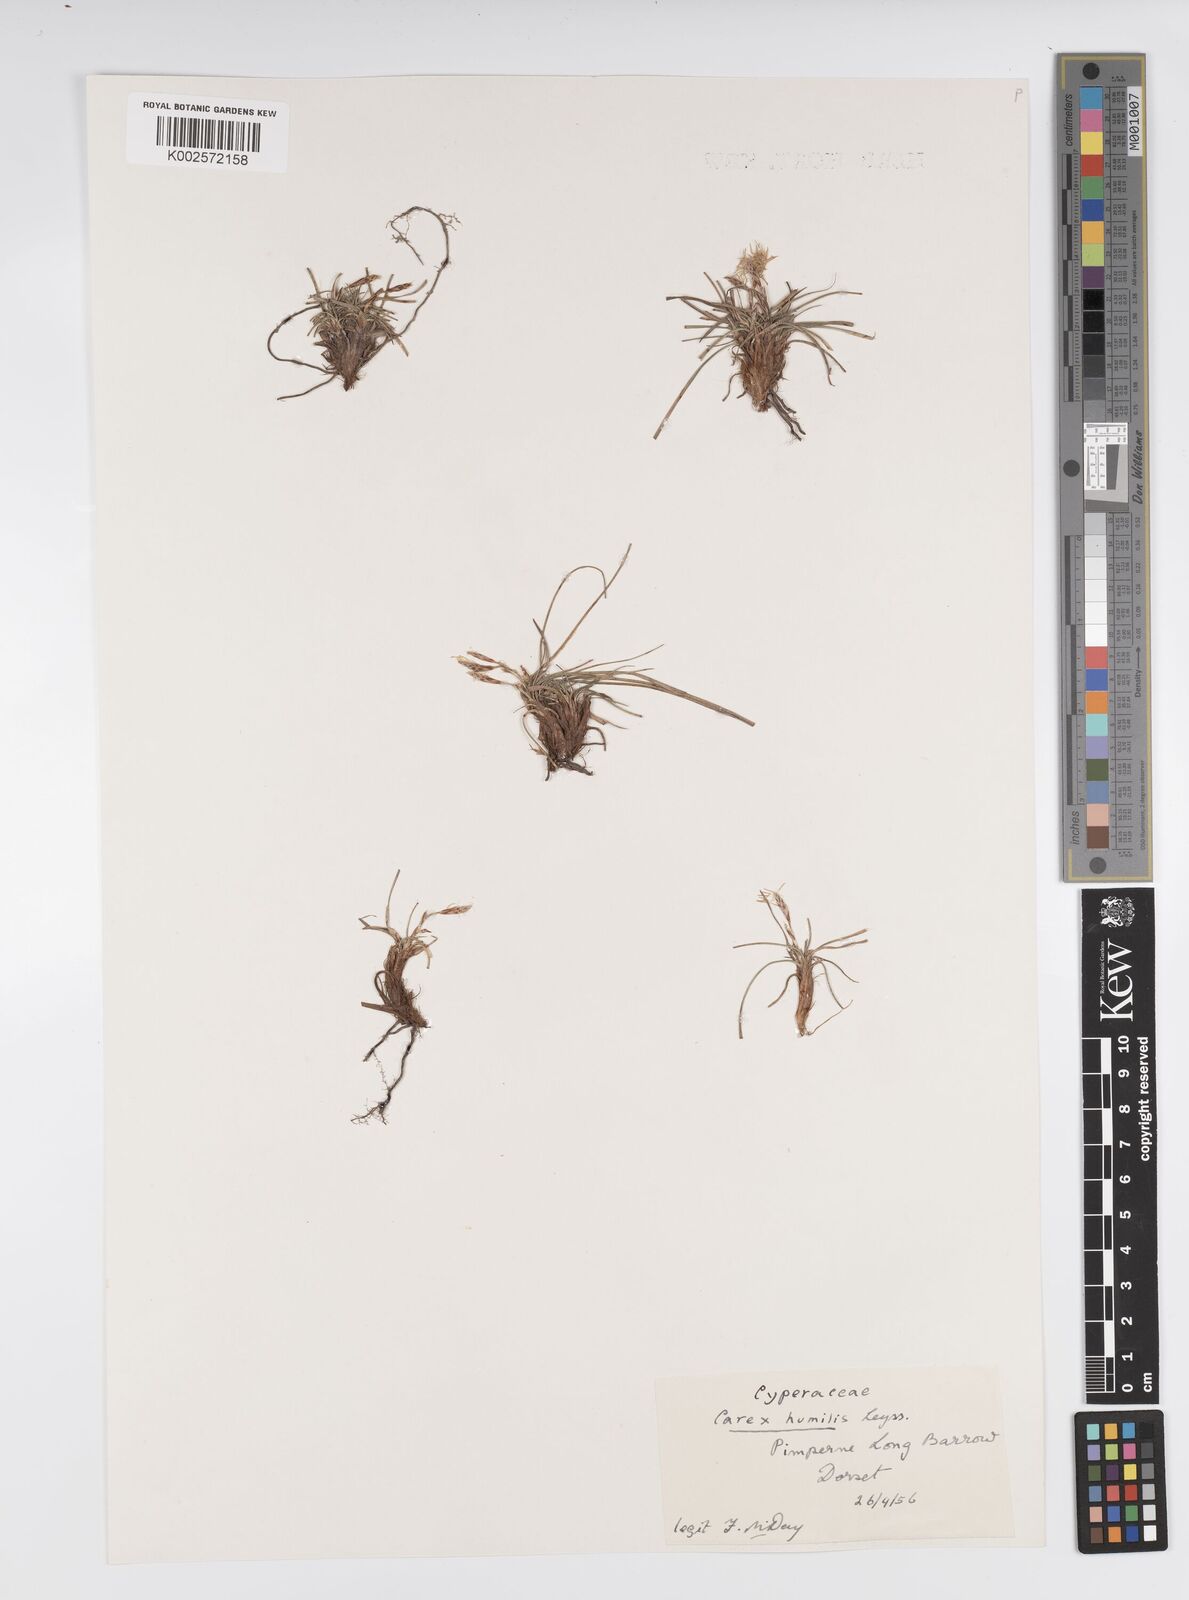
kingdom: Plantae
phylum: Tracheophyta
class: Liliopsida
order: Poales
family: Cyperaceae
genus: Carex
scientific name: Carex cespitosa
